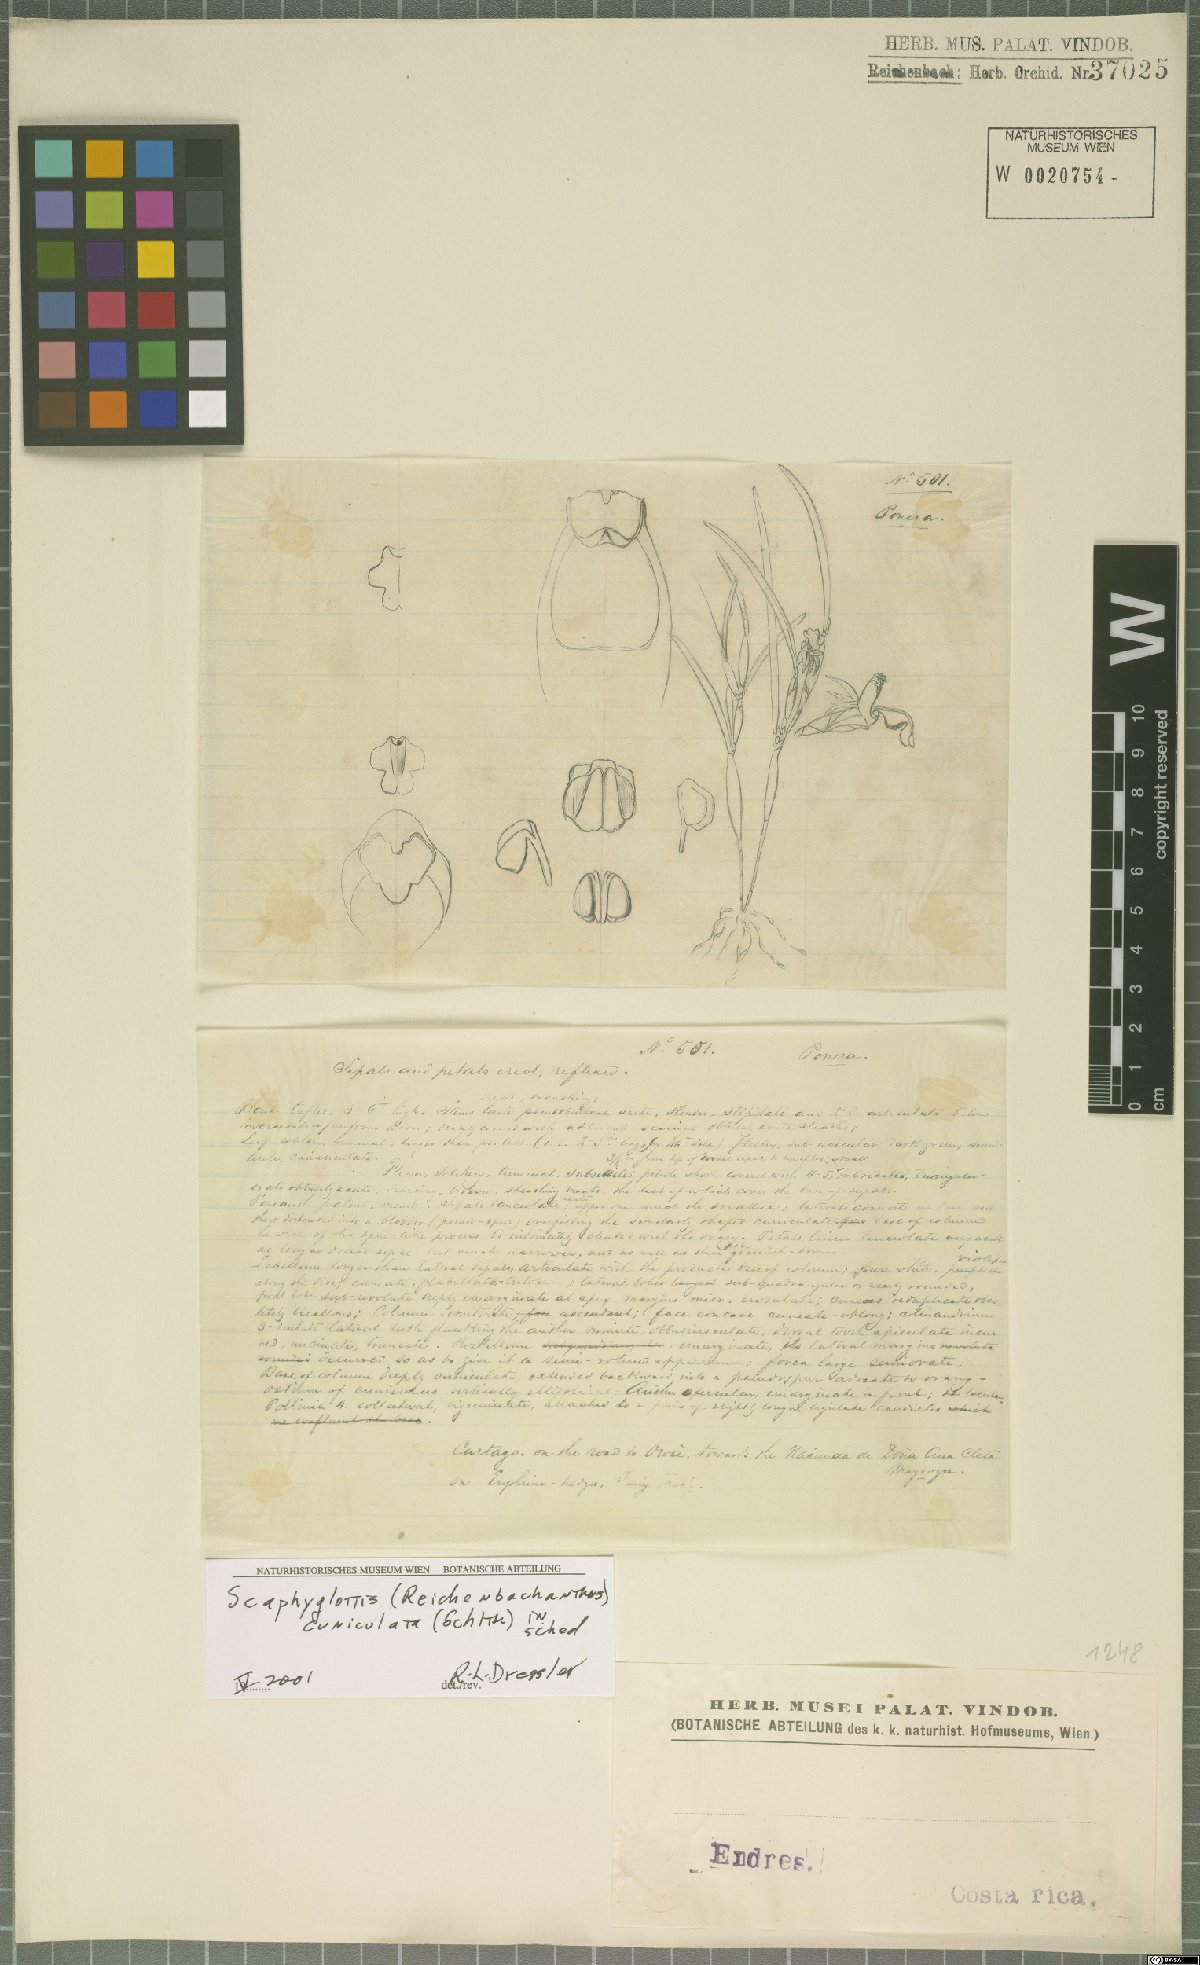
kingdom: Plantae
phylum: Tracheophyta
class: Liliopsida
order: Asparagales
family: Orchidaceae
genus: Scaphyglottis
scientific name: Scaphyglottis cuniculata
